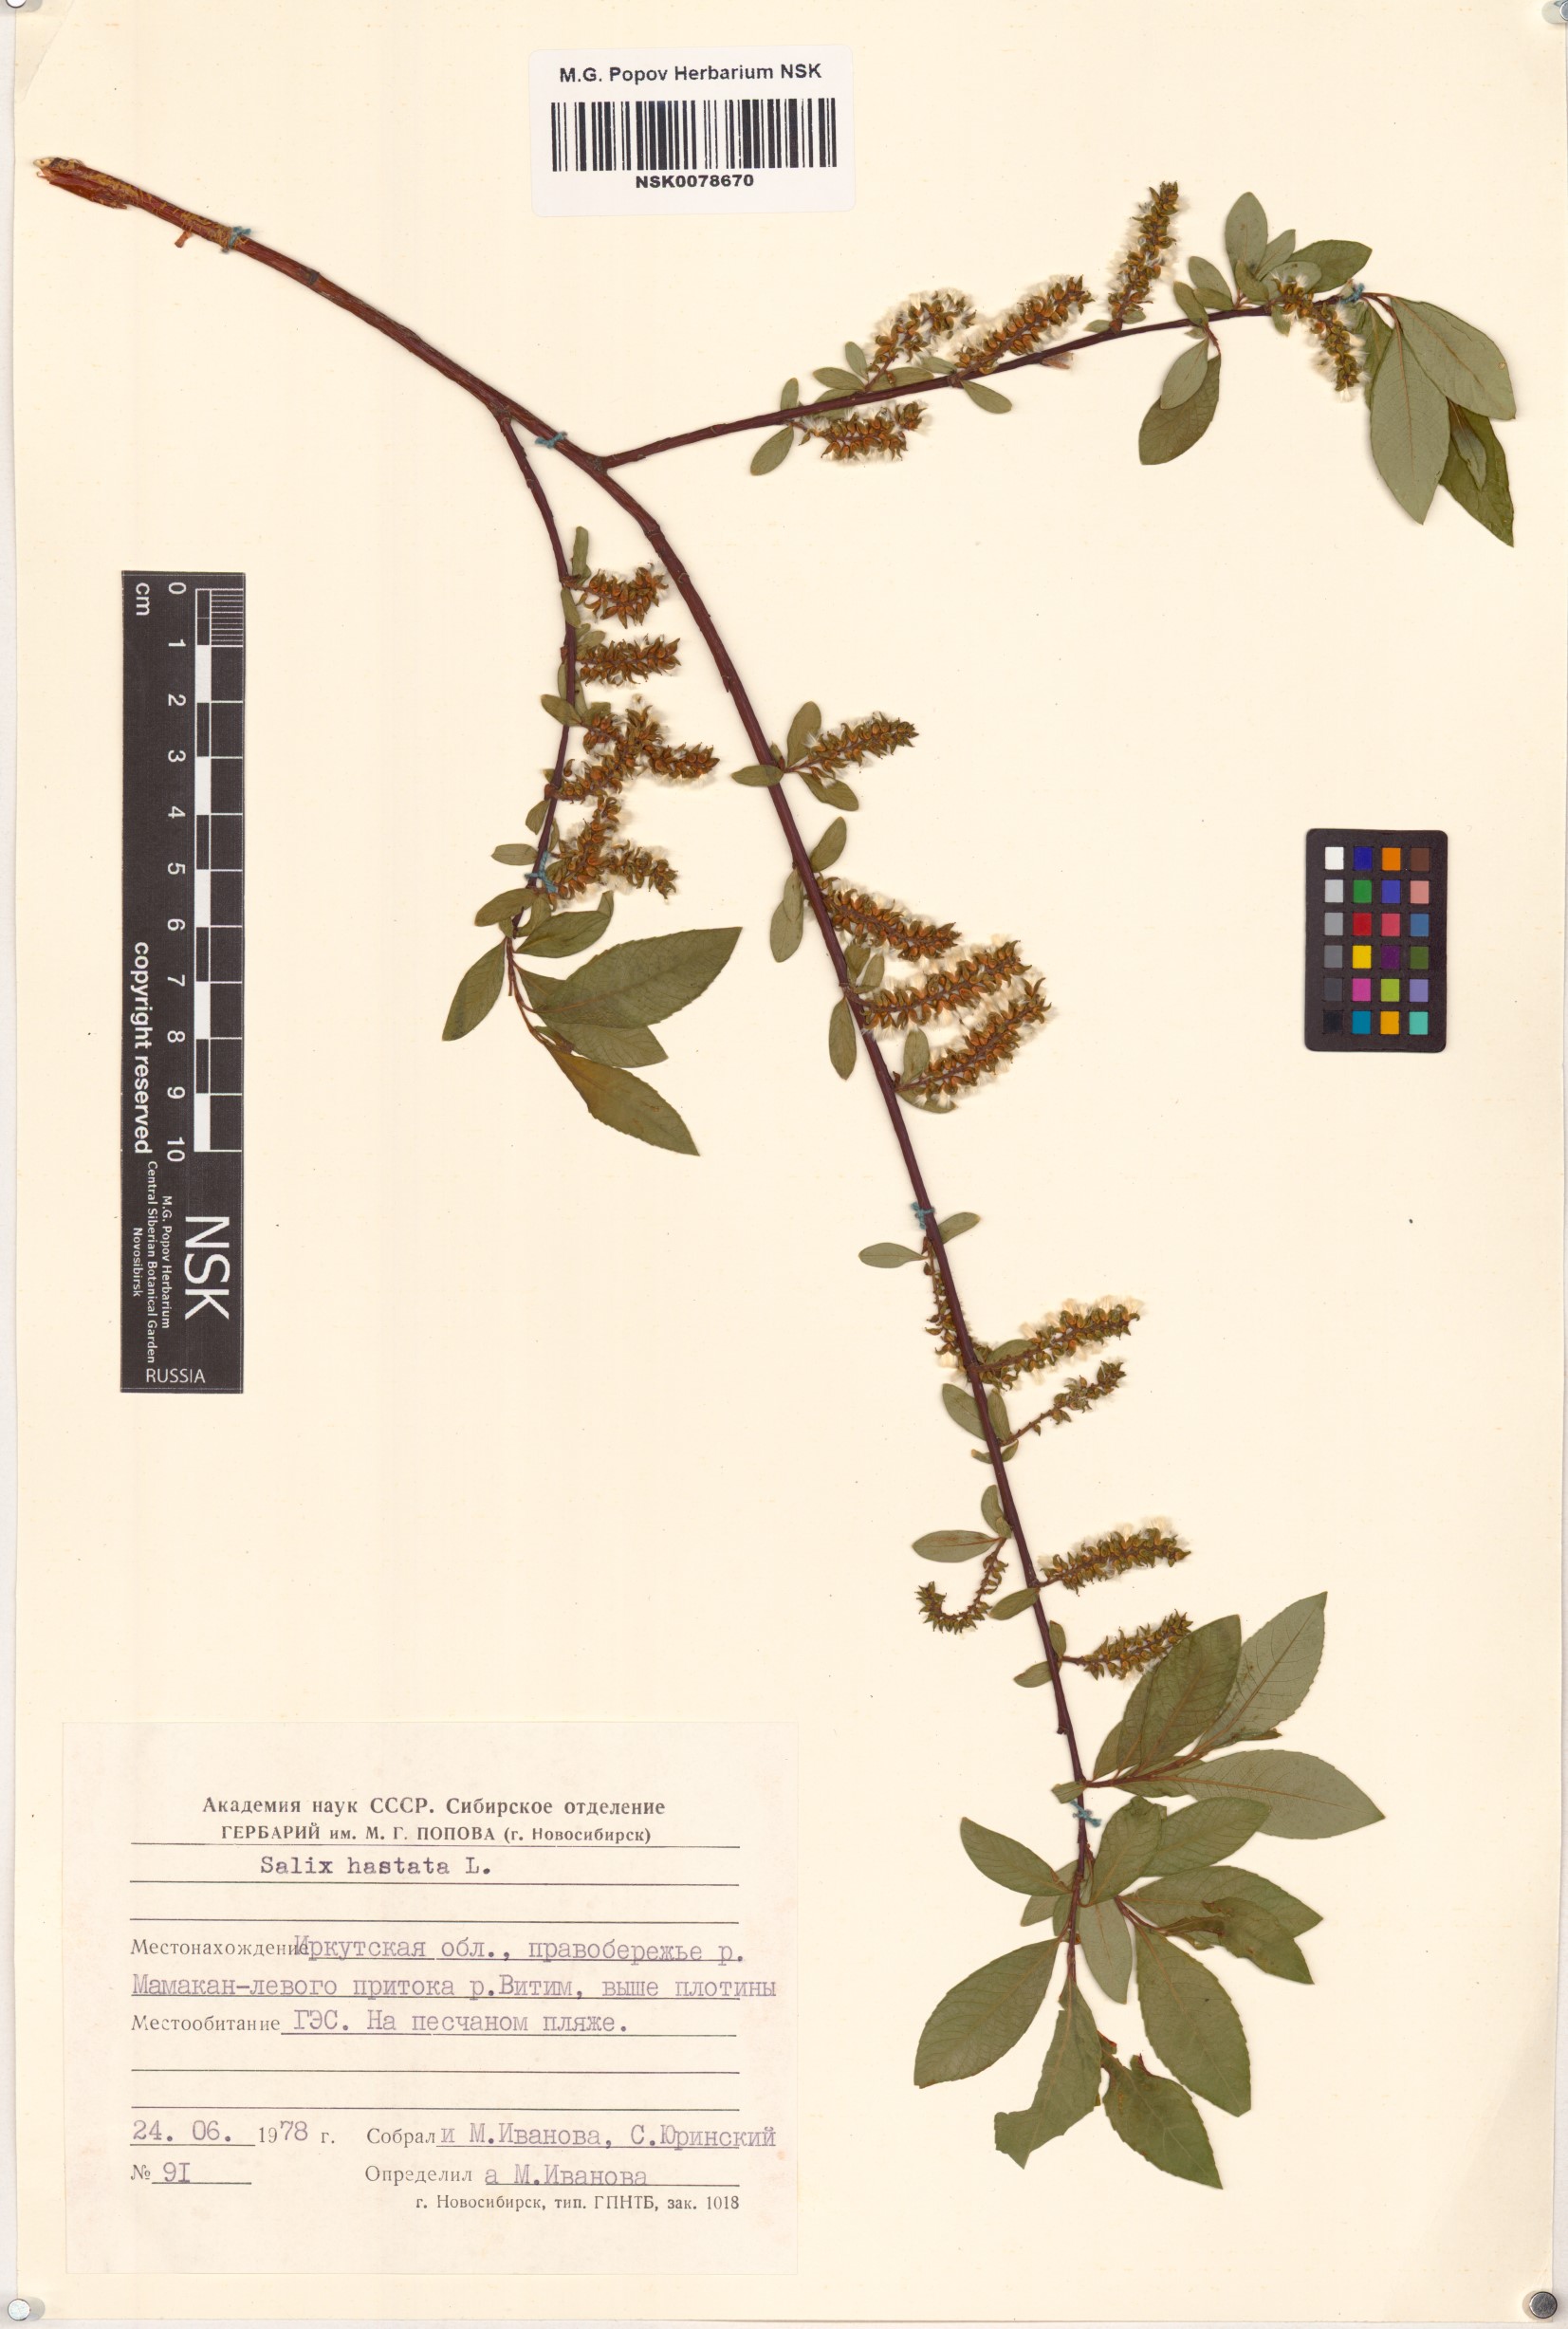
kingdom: Plantae
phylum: Tracheophyta
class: Magnoliopsida
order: Malpighiales
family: Salicaceae
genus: Salix
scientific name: Salix hastata
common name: Halberd willow
